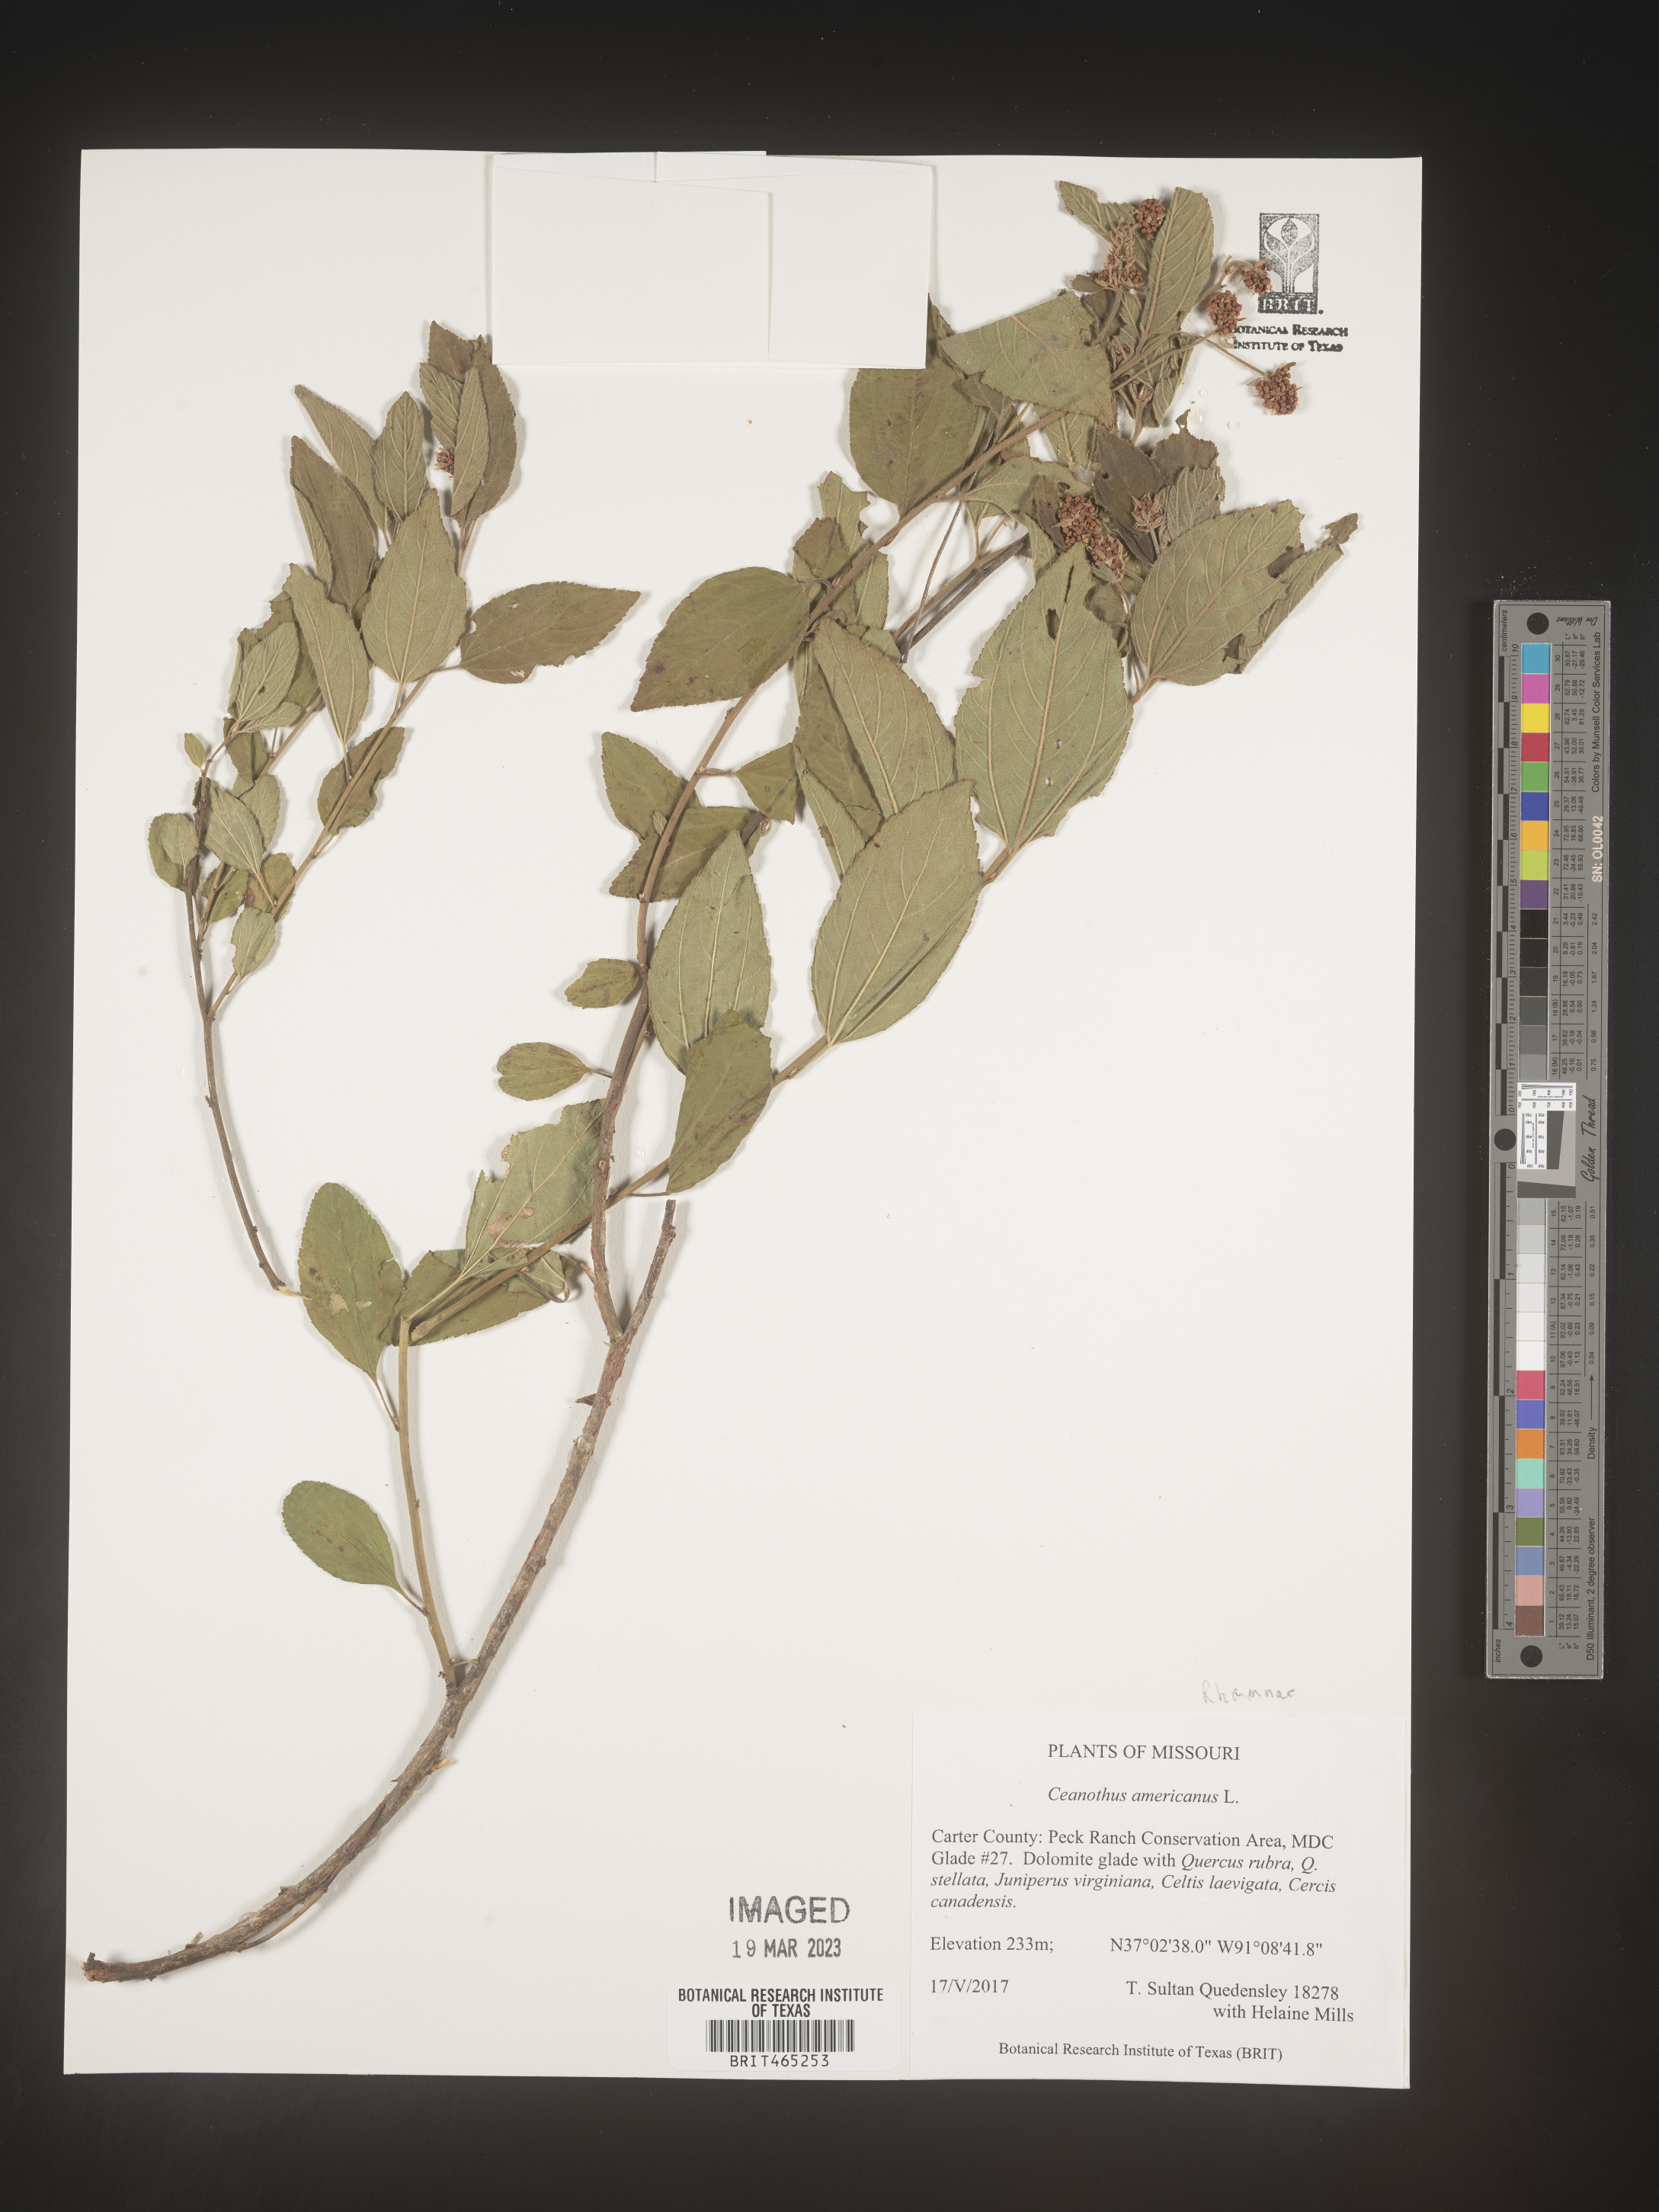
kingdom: Plantae
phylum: Tracheophyta
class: Magnoliopsida
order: Rosales
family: Rhamnaceae
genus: Ceanothus
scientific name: Ceanothus americanus
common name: Redroot
